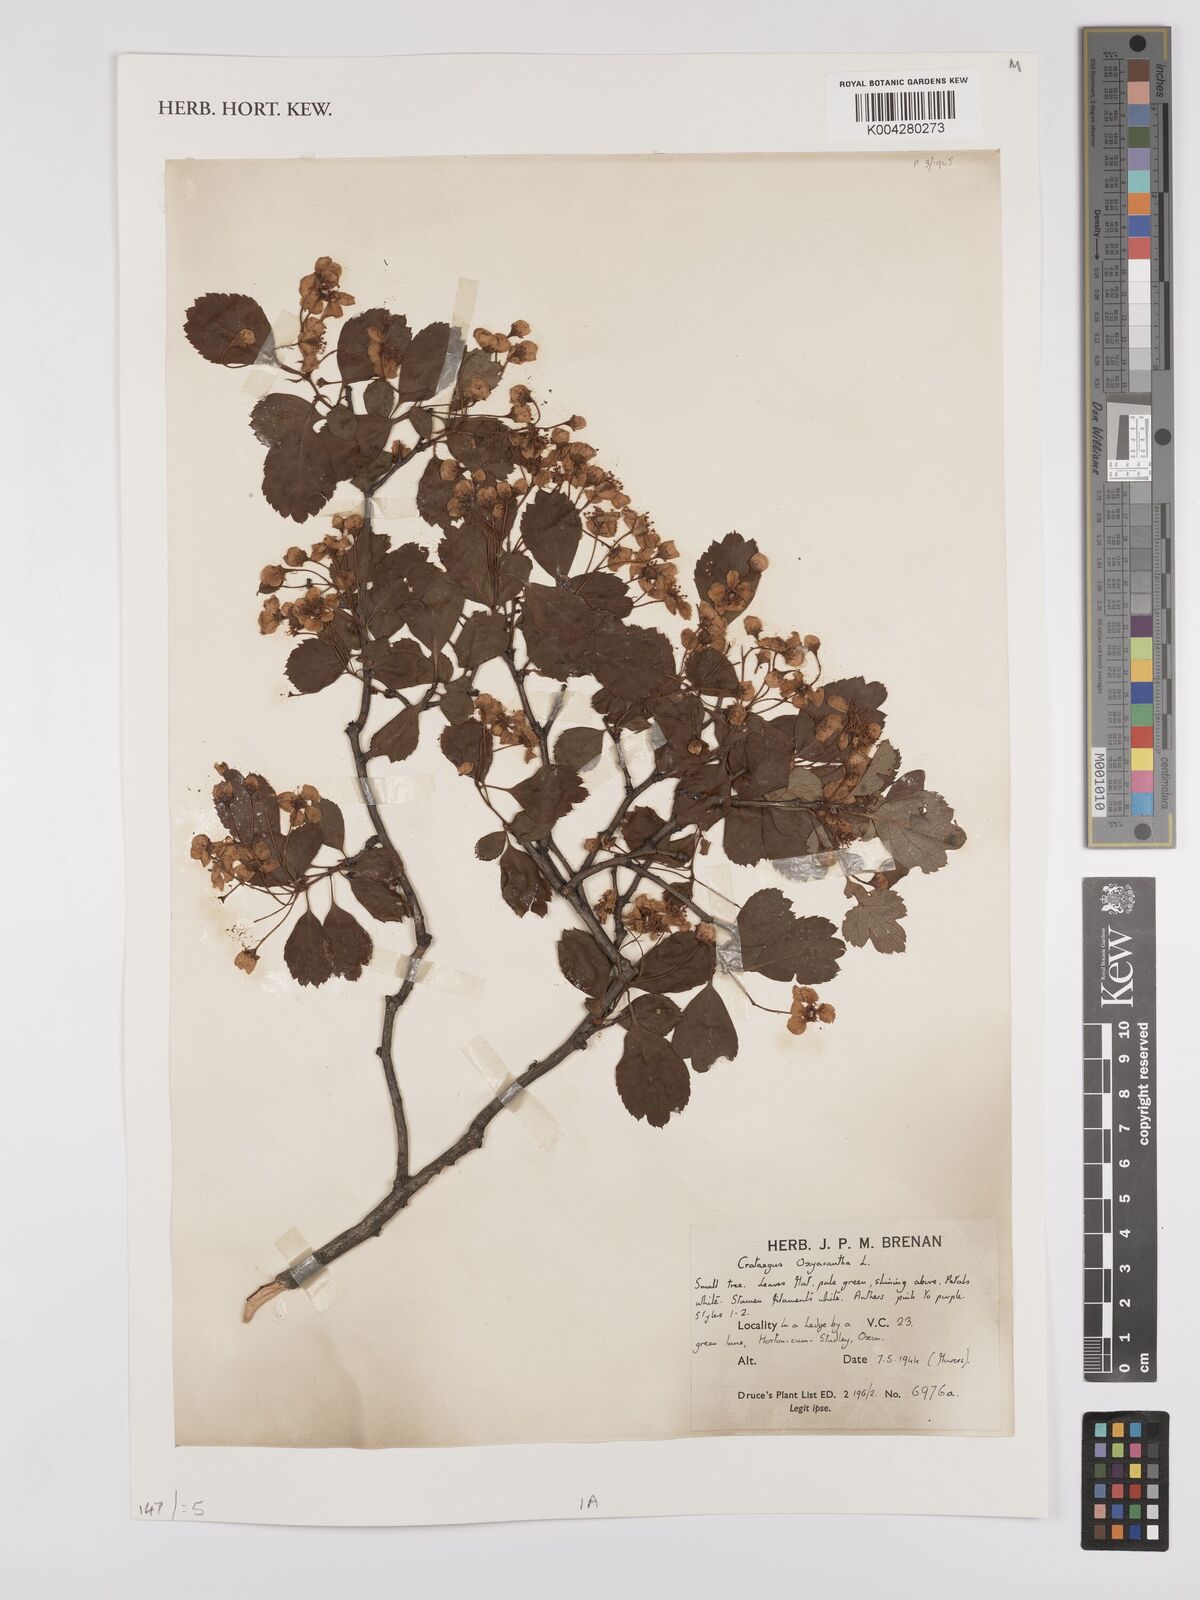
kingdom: Plantae
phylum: Tracheophyta
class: Magnoliopsida
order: Rosales
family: Rosaceae
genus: Crataegus
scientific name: Crataegus laevigata
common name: Midland hawthorn
